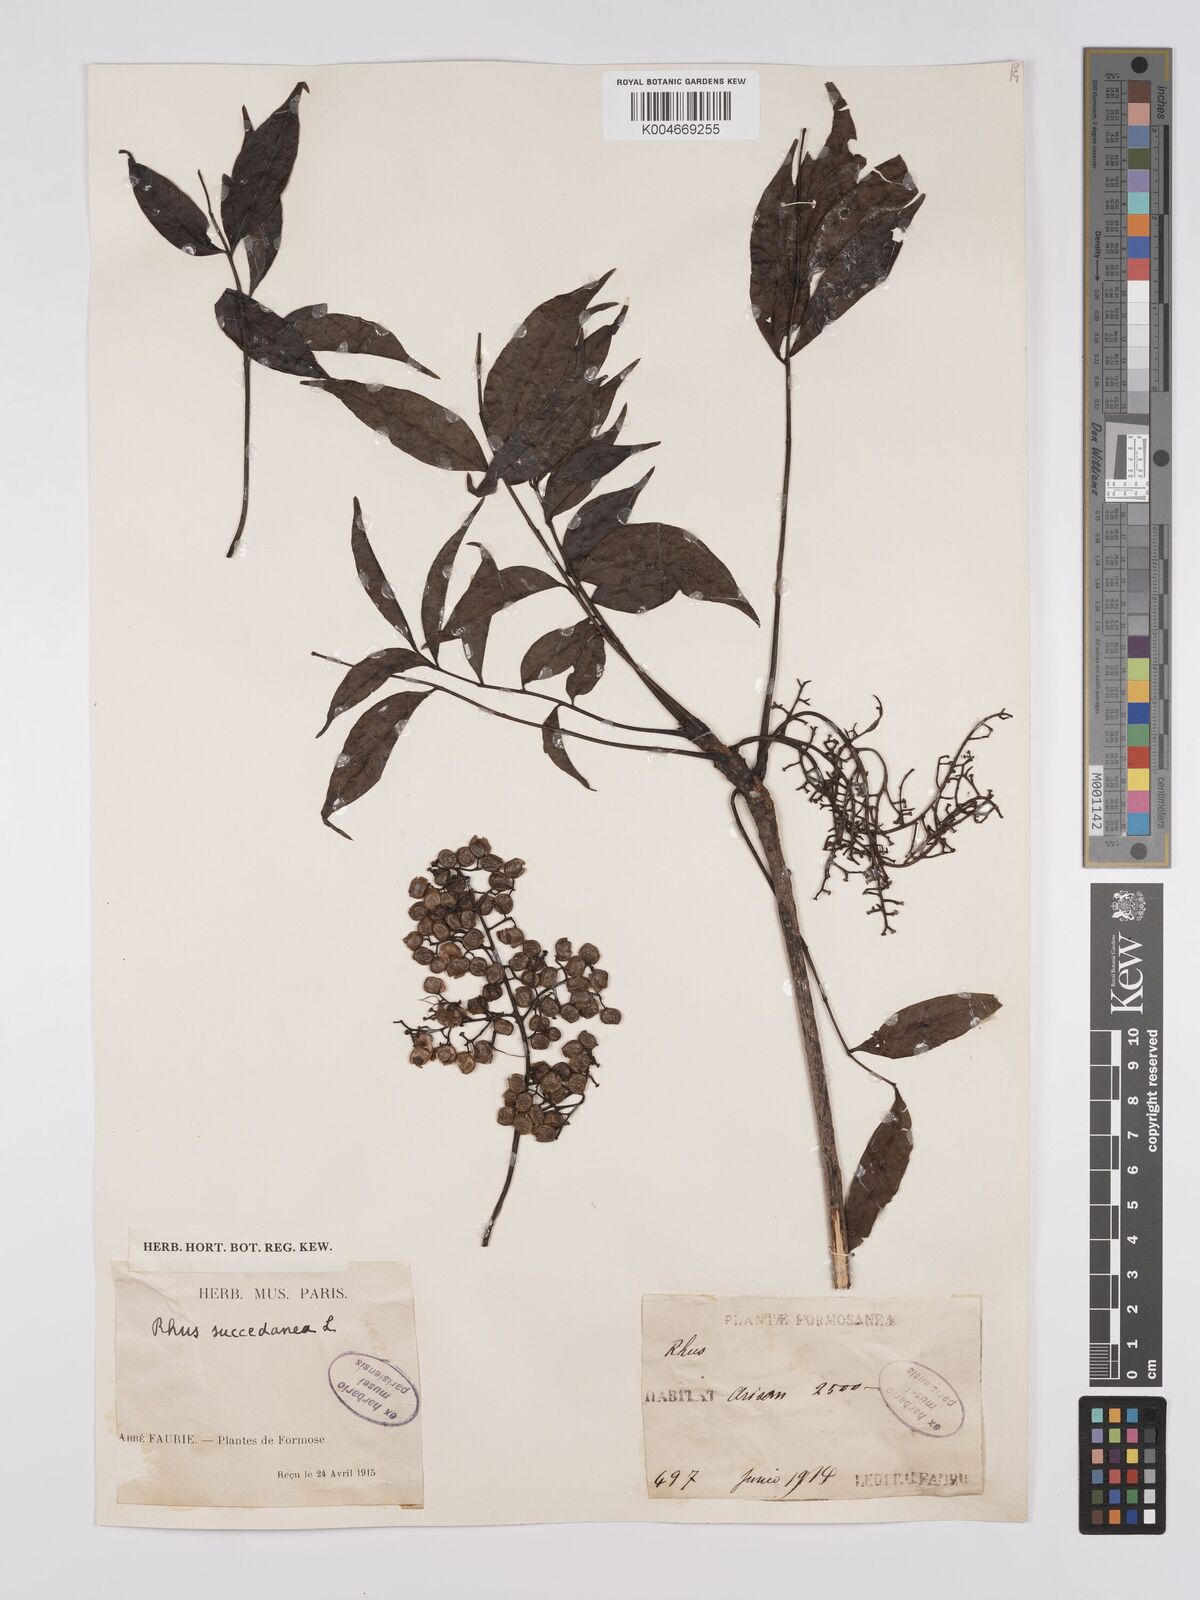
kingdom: Plantae
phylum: Tracheophyta
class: Magnoliopsida
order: Sapindales
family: Anacardiaceae
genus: Toxicodendron
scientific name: Toxicodendron succedaneum
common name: Wax tree
